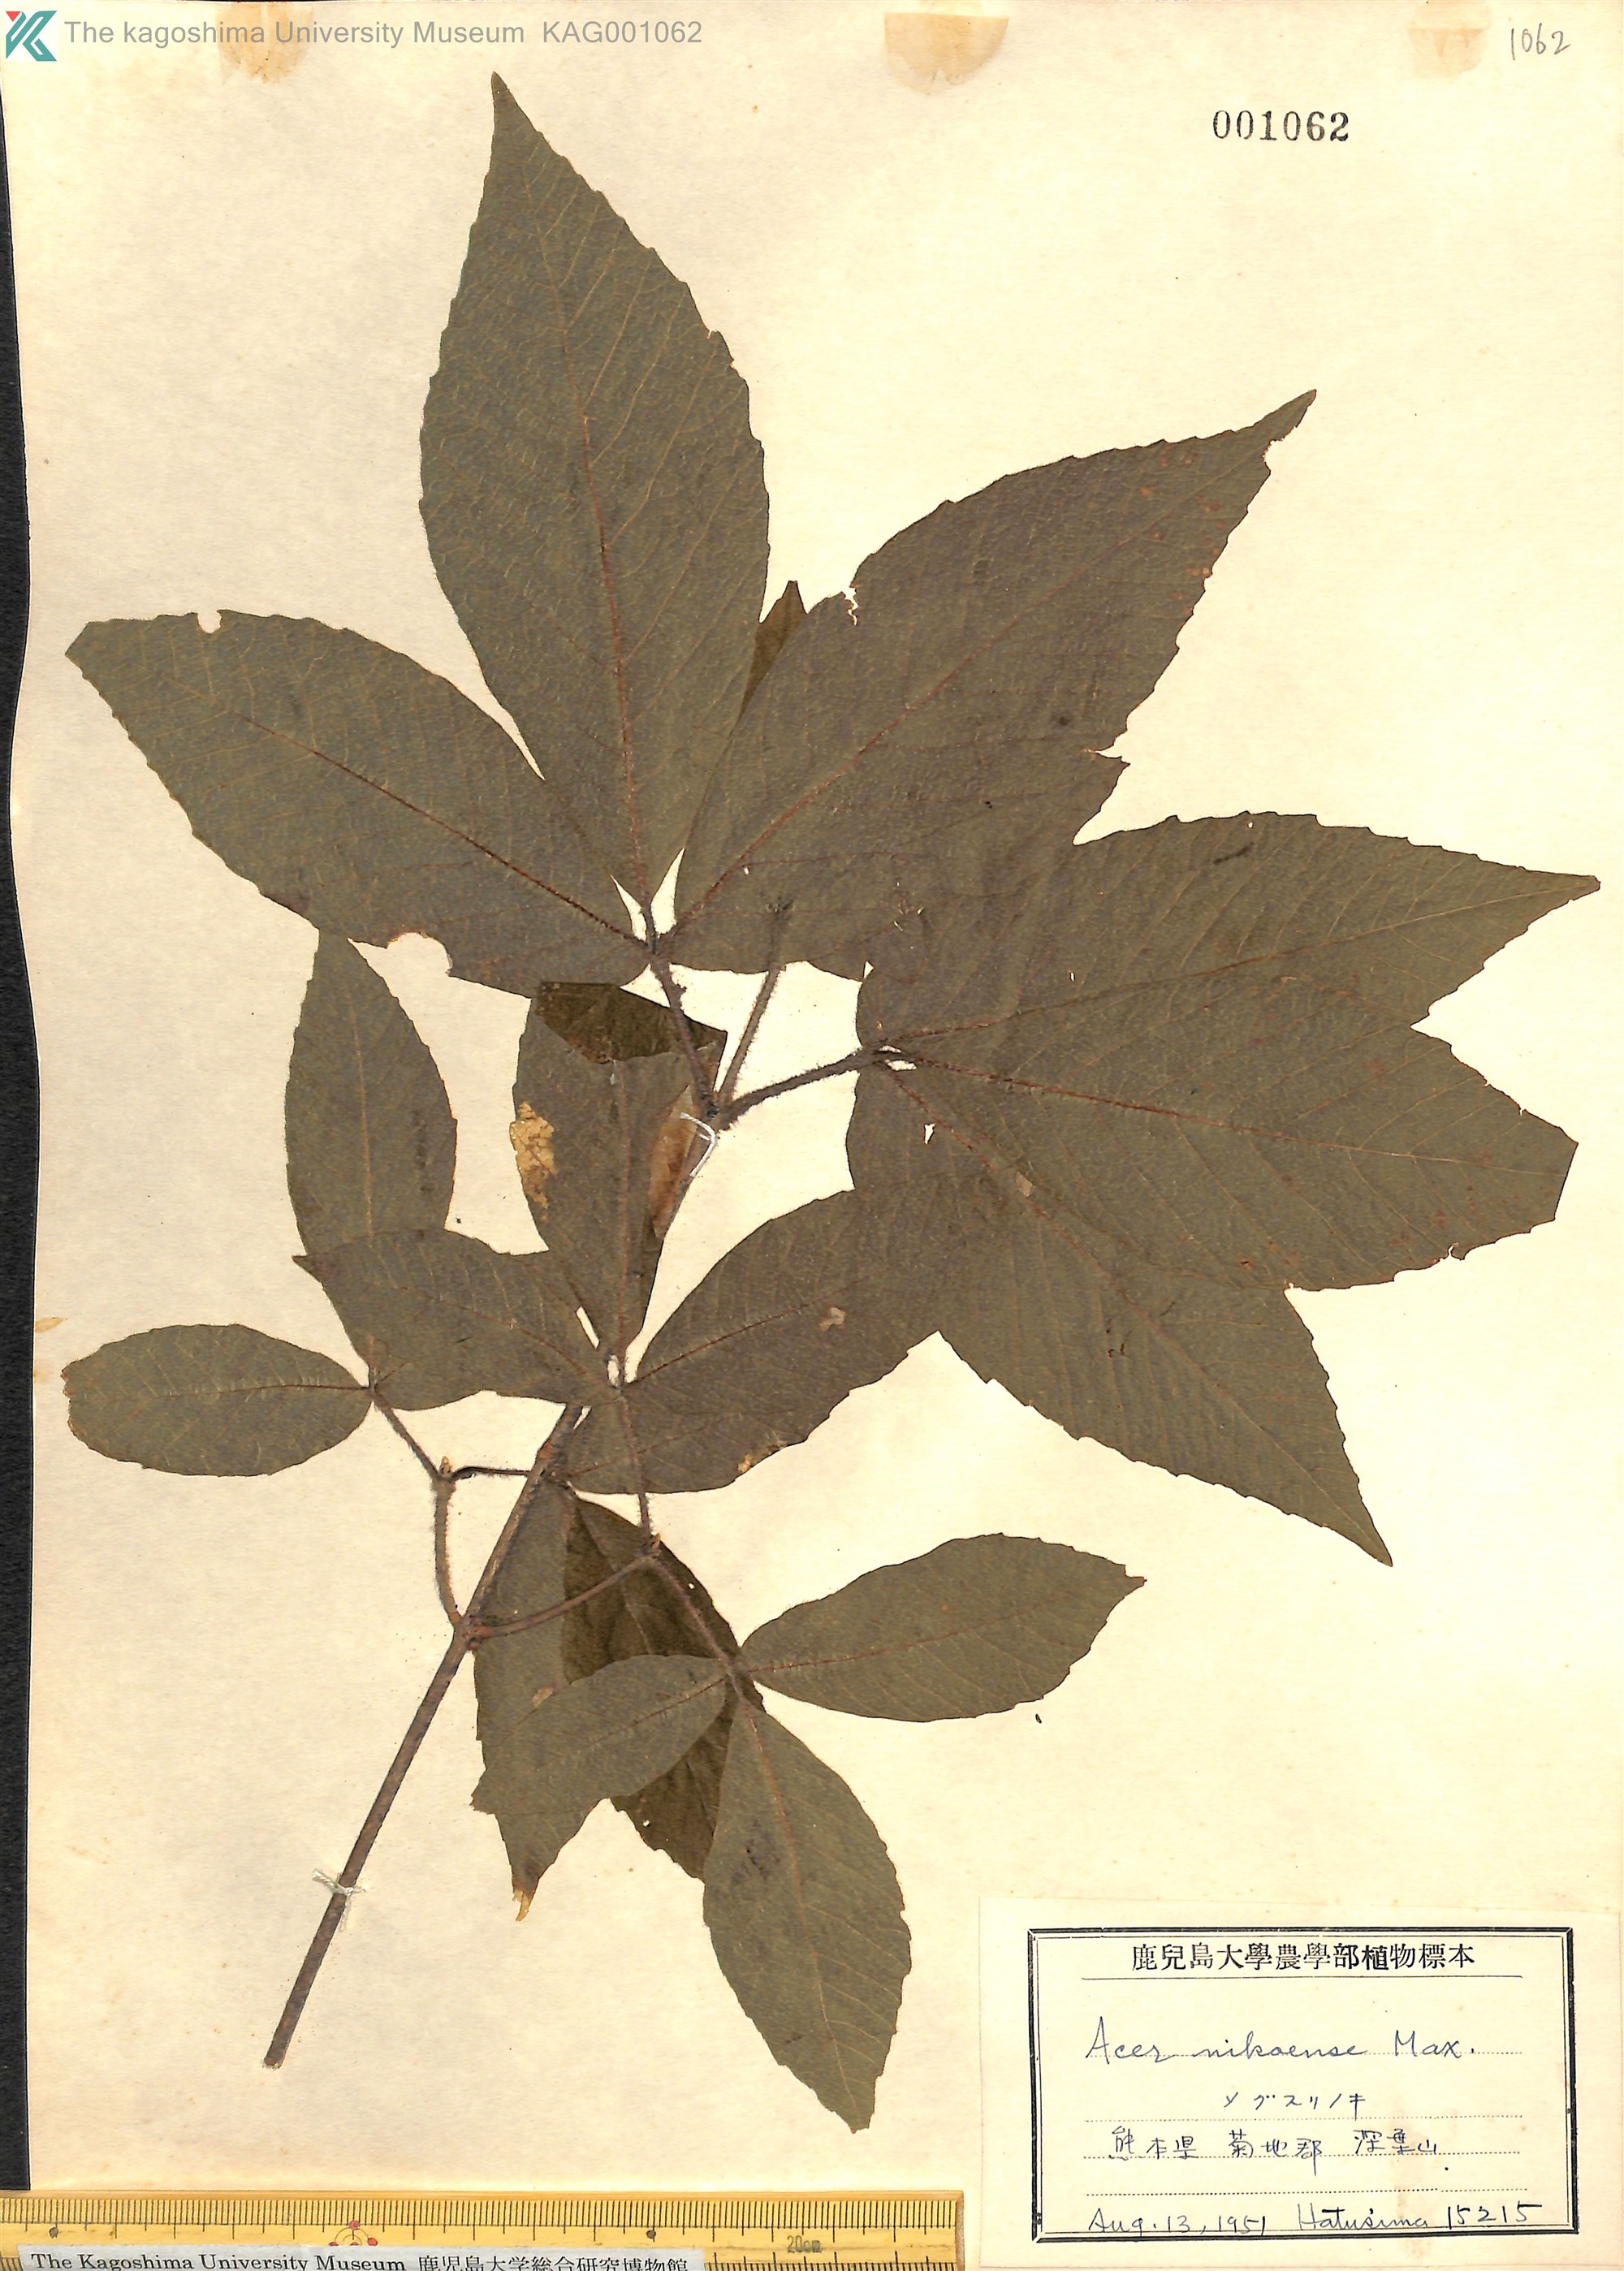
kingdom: Plantae
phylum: Tracheophyta
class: Magnoliopsida
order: Sapindales
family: Sapindaceae
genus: Acer
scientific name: Acer maximowiczianum
